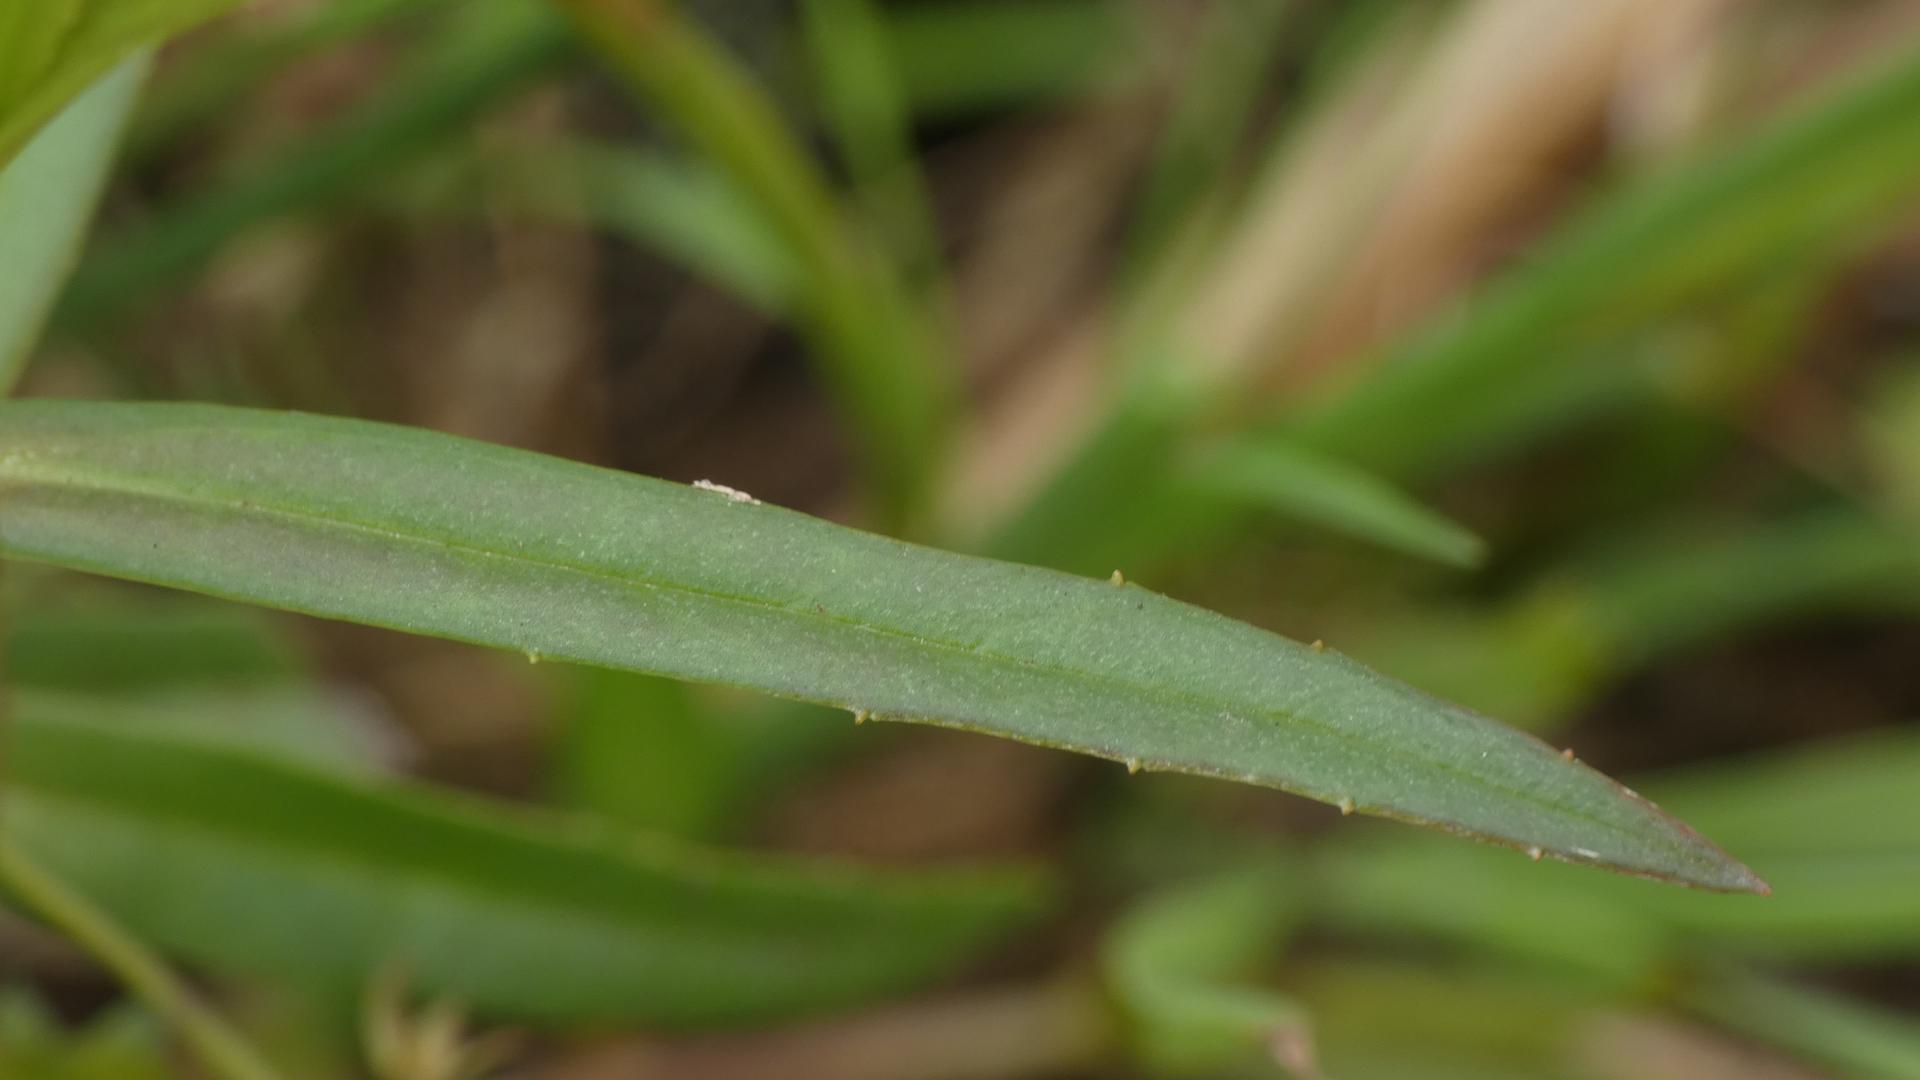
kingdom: Plantae
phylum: Tracheophyta
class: Magnoliopsida
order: Lamiales
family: Plantaginaceae
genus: Veronica
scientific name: Veronica scutellata
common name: Smalbladet ærenpris
